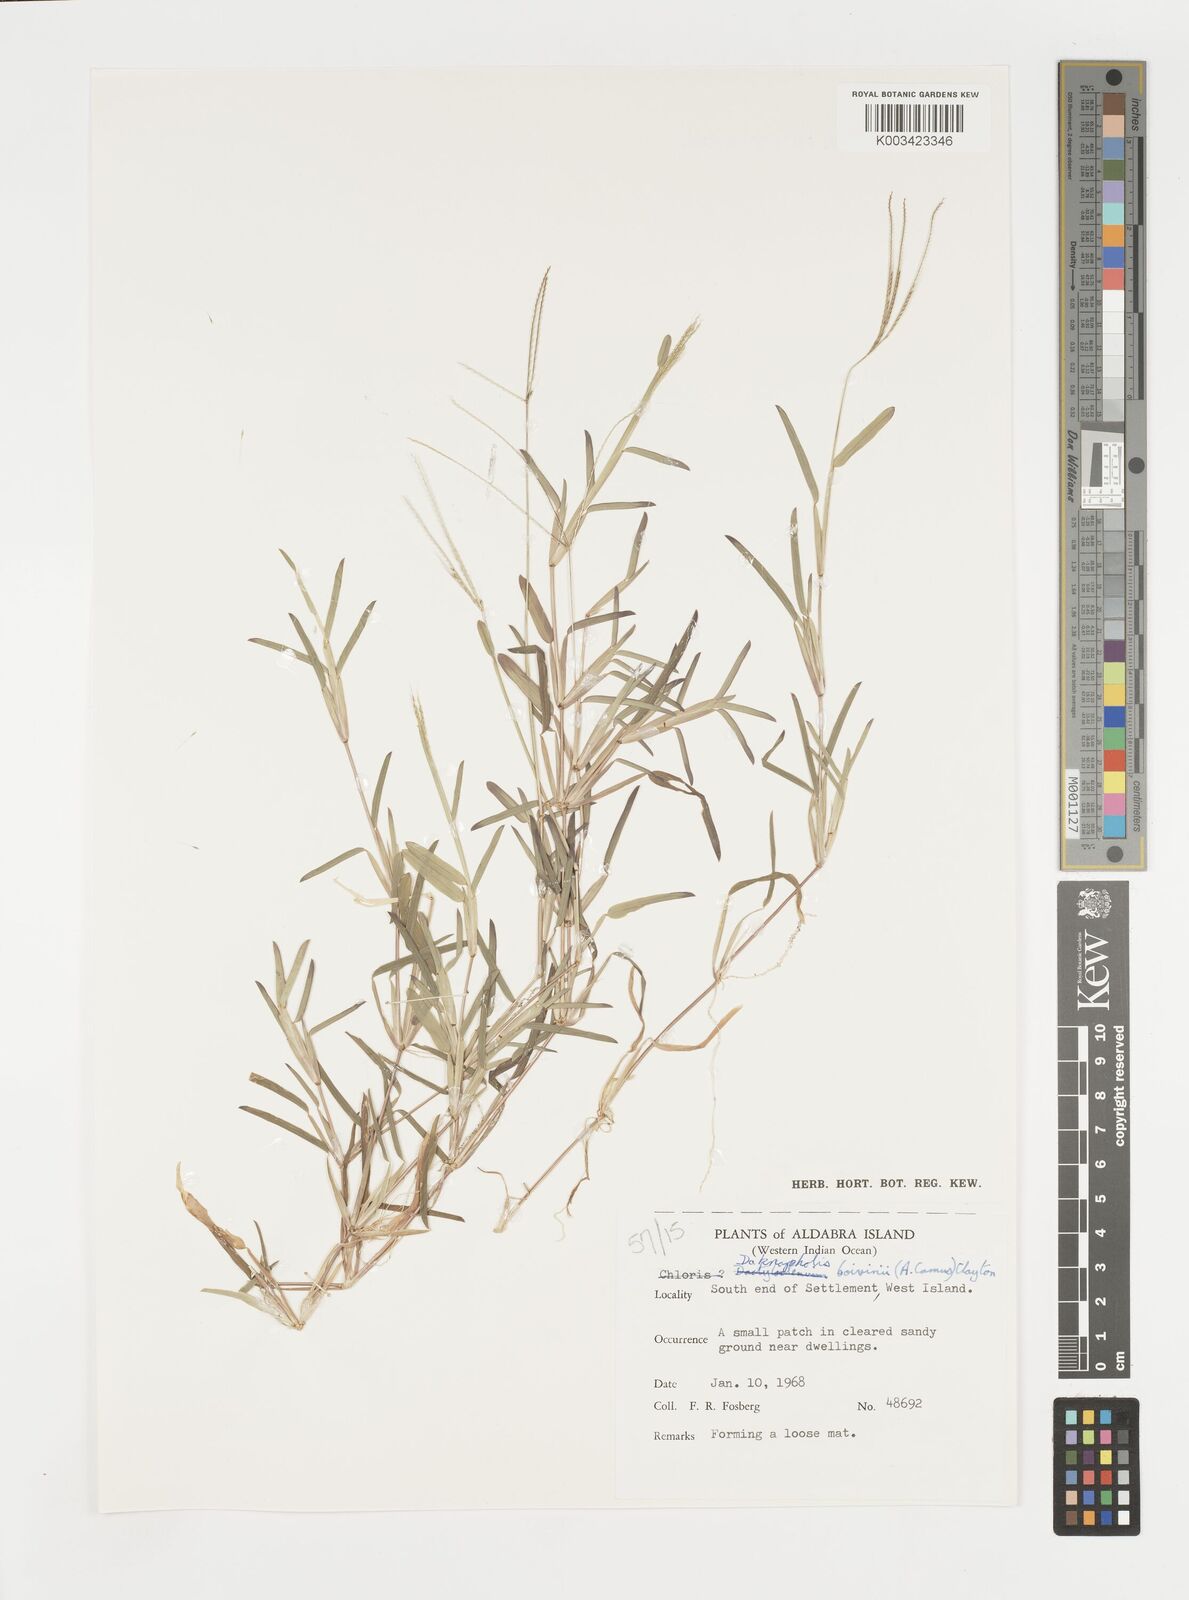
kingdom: Plantae
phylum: Tracheophyta
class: Liliopsida
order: Poales
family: Poaceae
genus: Daknopholis
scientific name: Daknopholis boivinii
